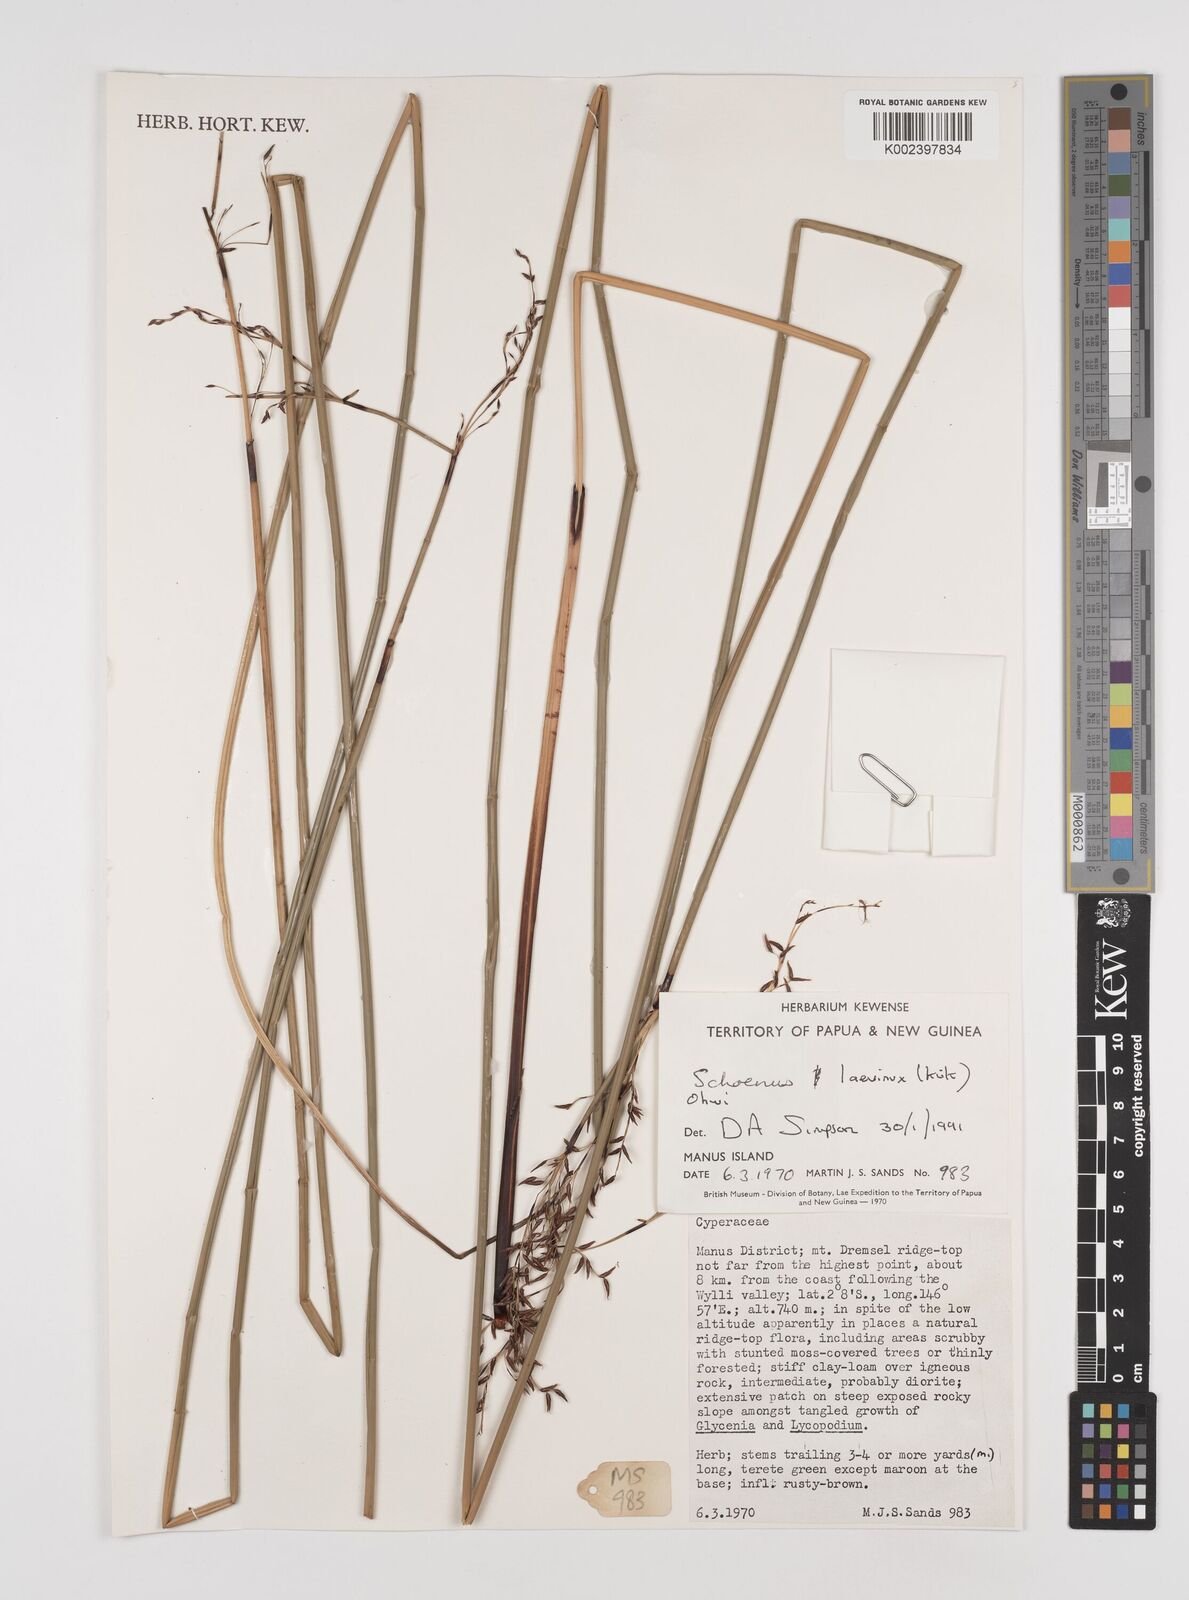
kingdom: Plantae
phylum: Tracheophyta
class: Liliopsida
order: Poales
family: Cyperaceae
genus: Schoenus
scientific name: Schoenus laevinux
